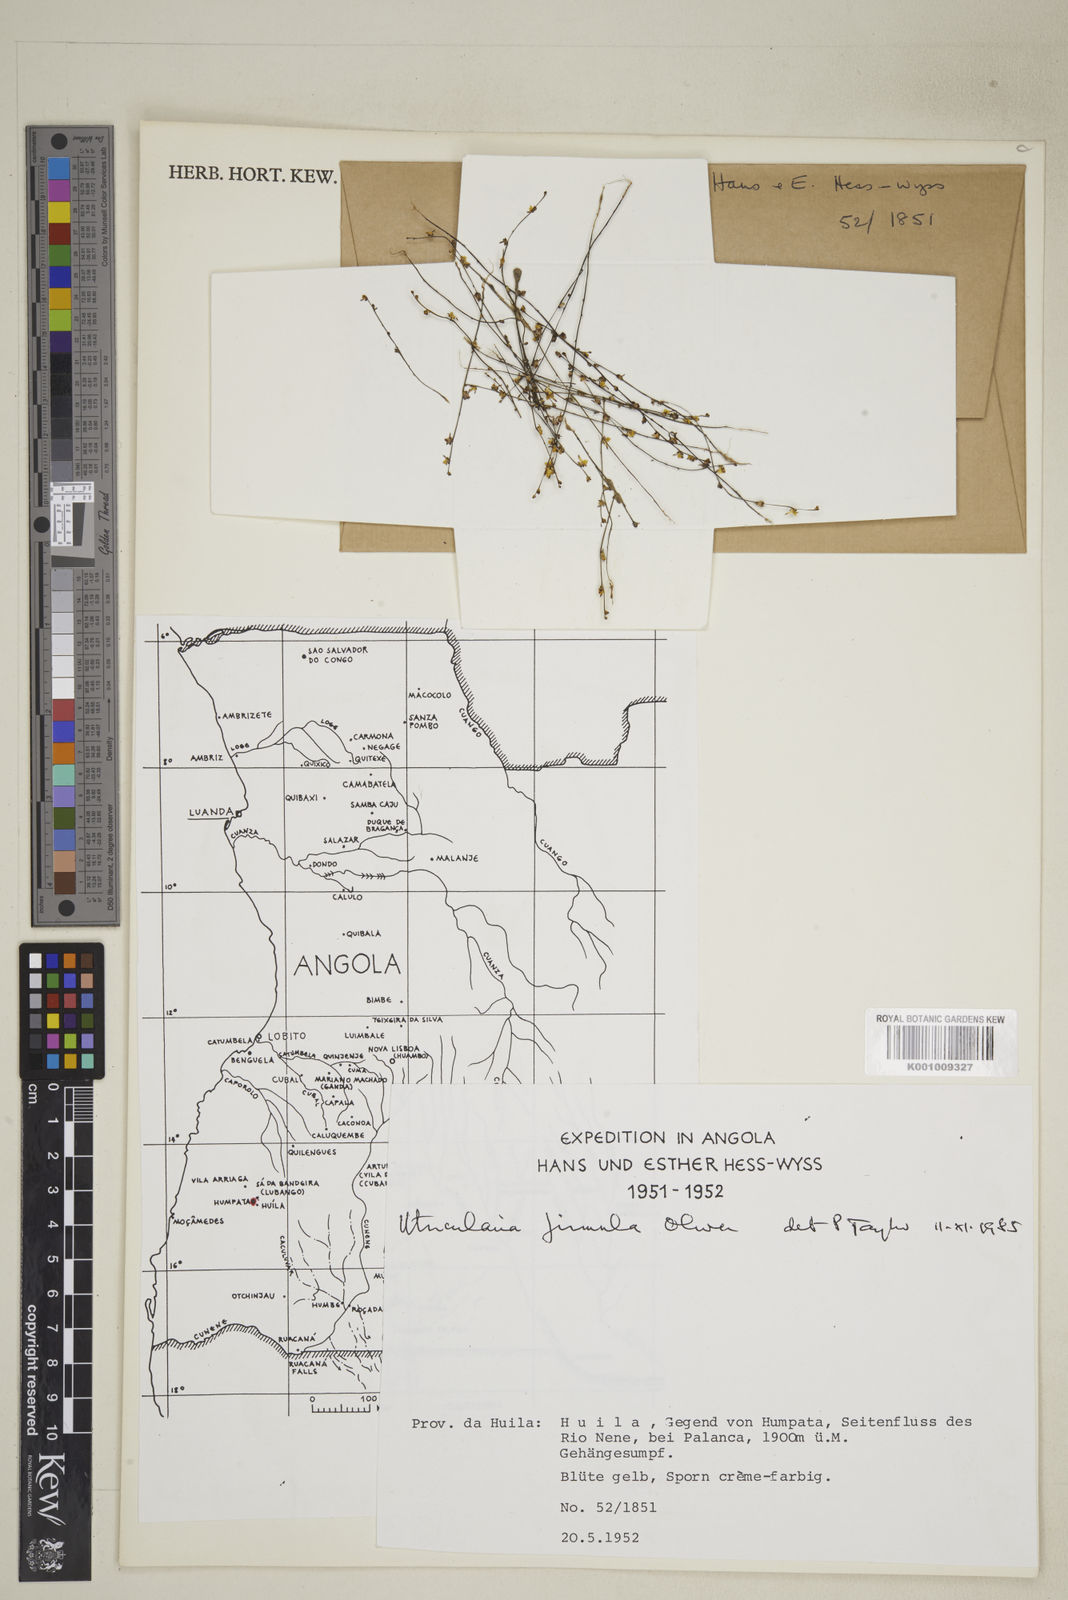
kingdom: Plantae
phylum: Tracheophyta
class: Magnoliopsida
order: Lamiales
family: Lentibulariaceae
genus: Utricularia
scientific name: Utricularia firmula
